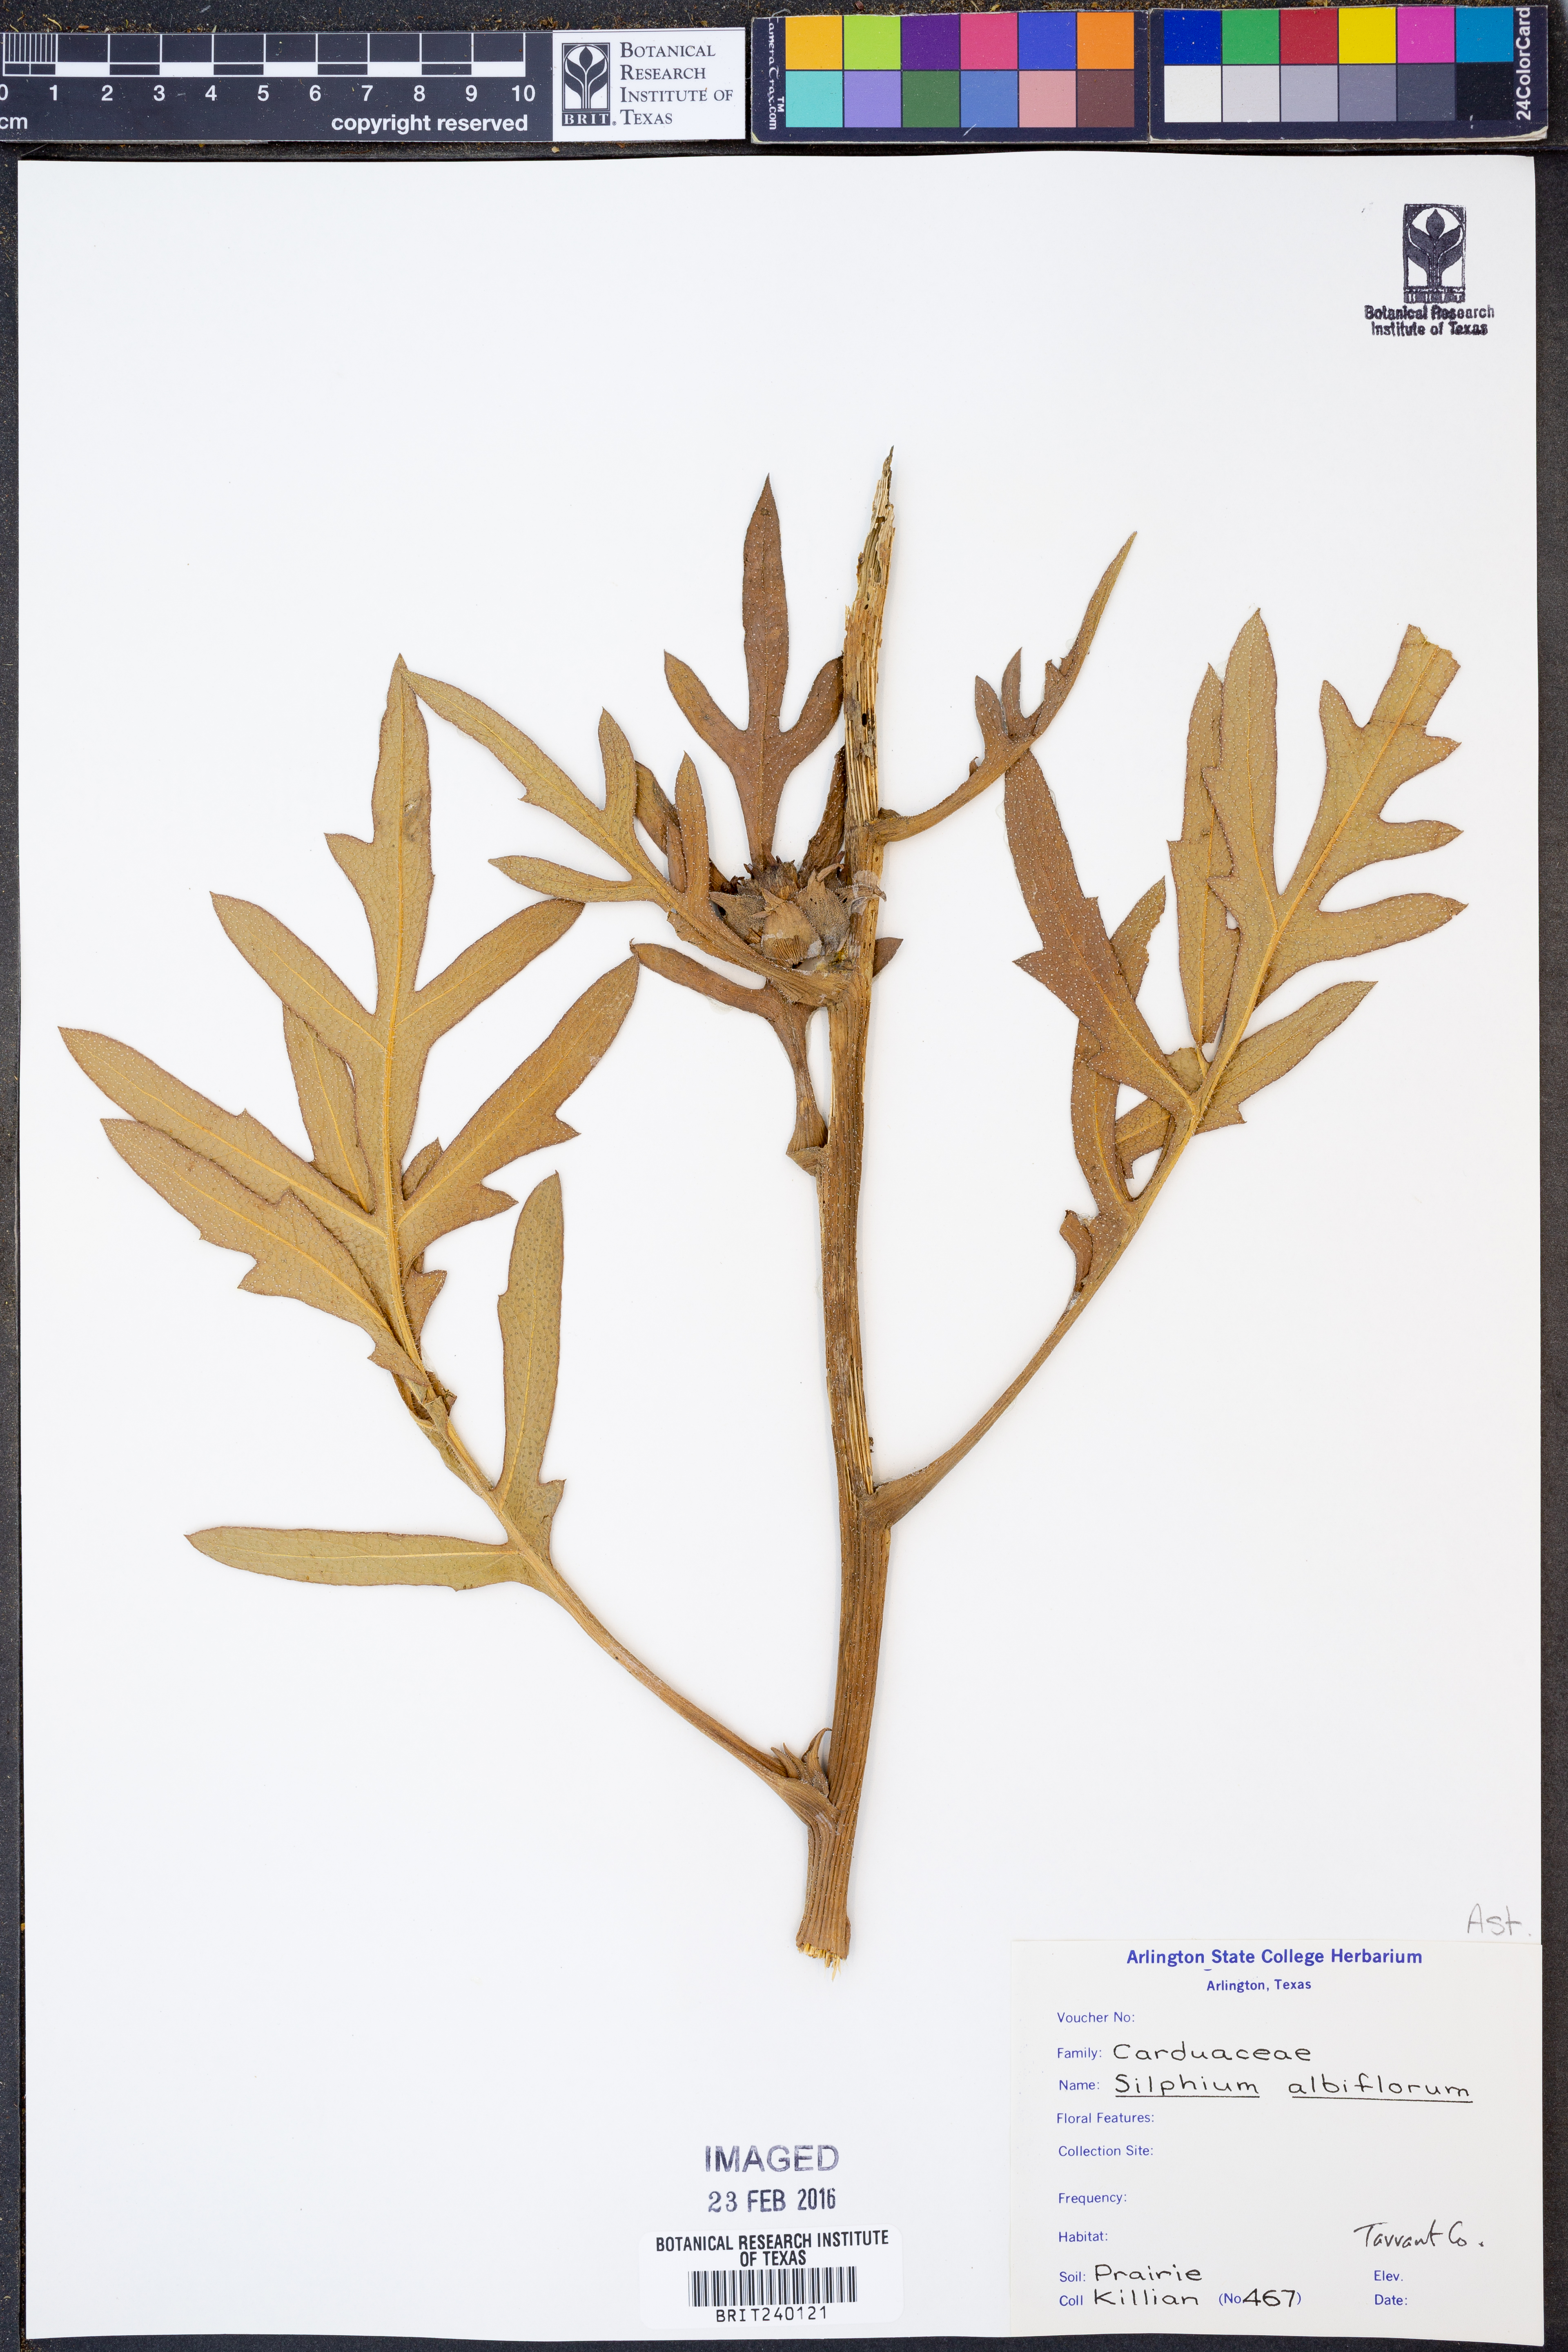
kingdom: Plantae
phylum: Tracheophyta
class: Magnoliopsida
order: Asterales
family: Asteraceae
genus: Silphium
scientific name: Silphium albiflorum
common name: White rosinweed
